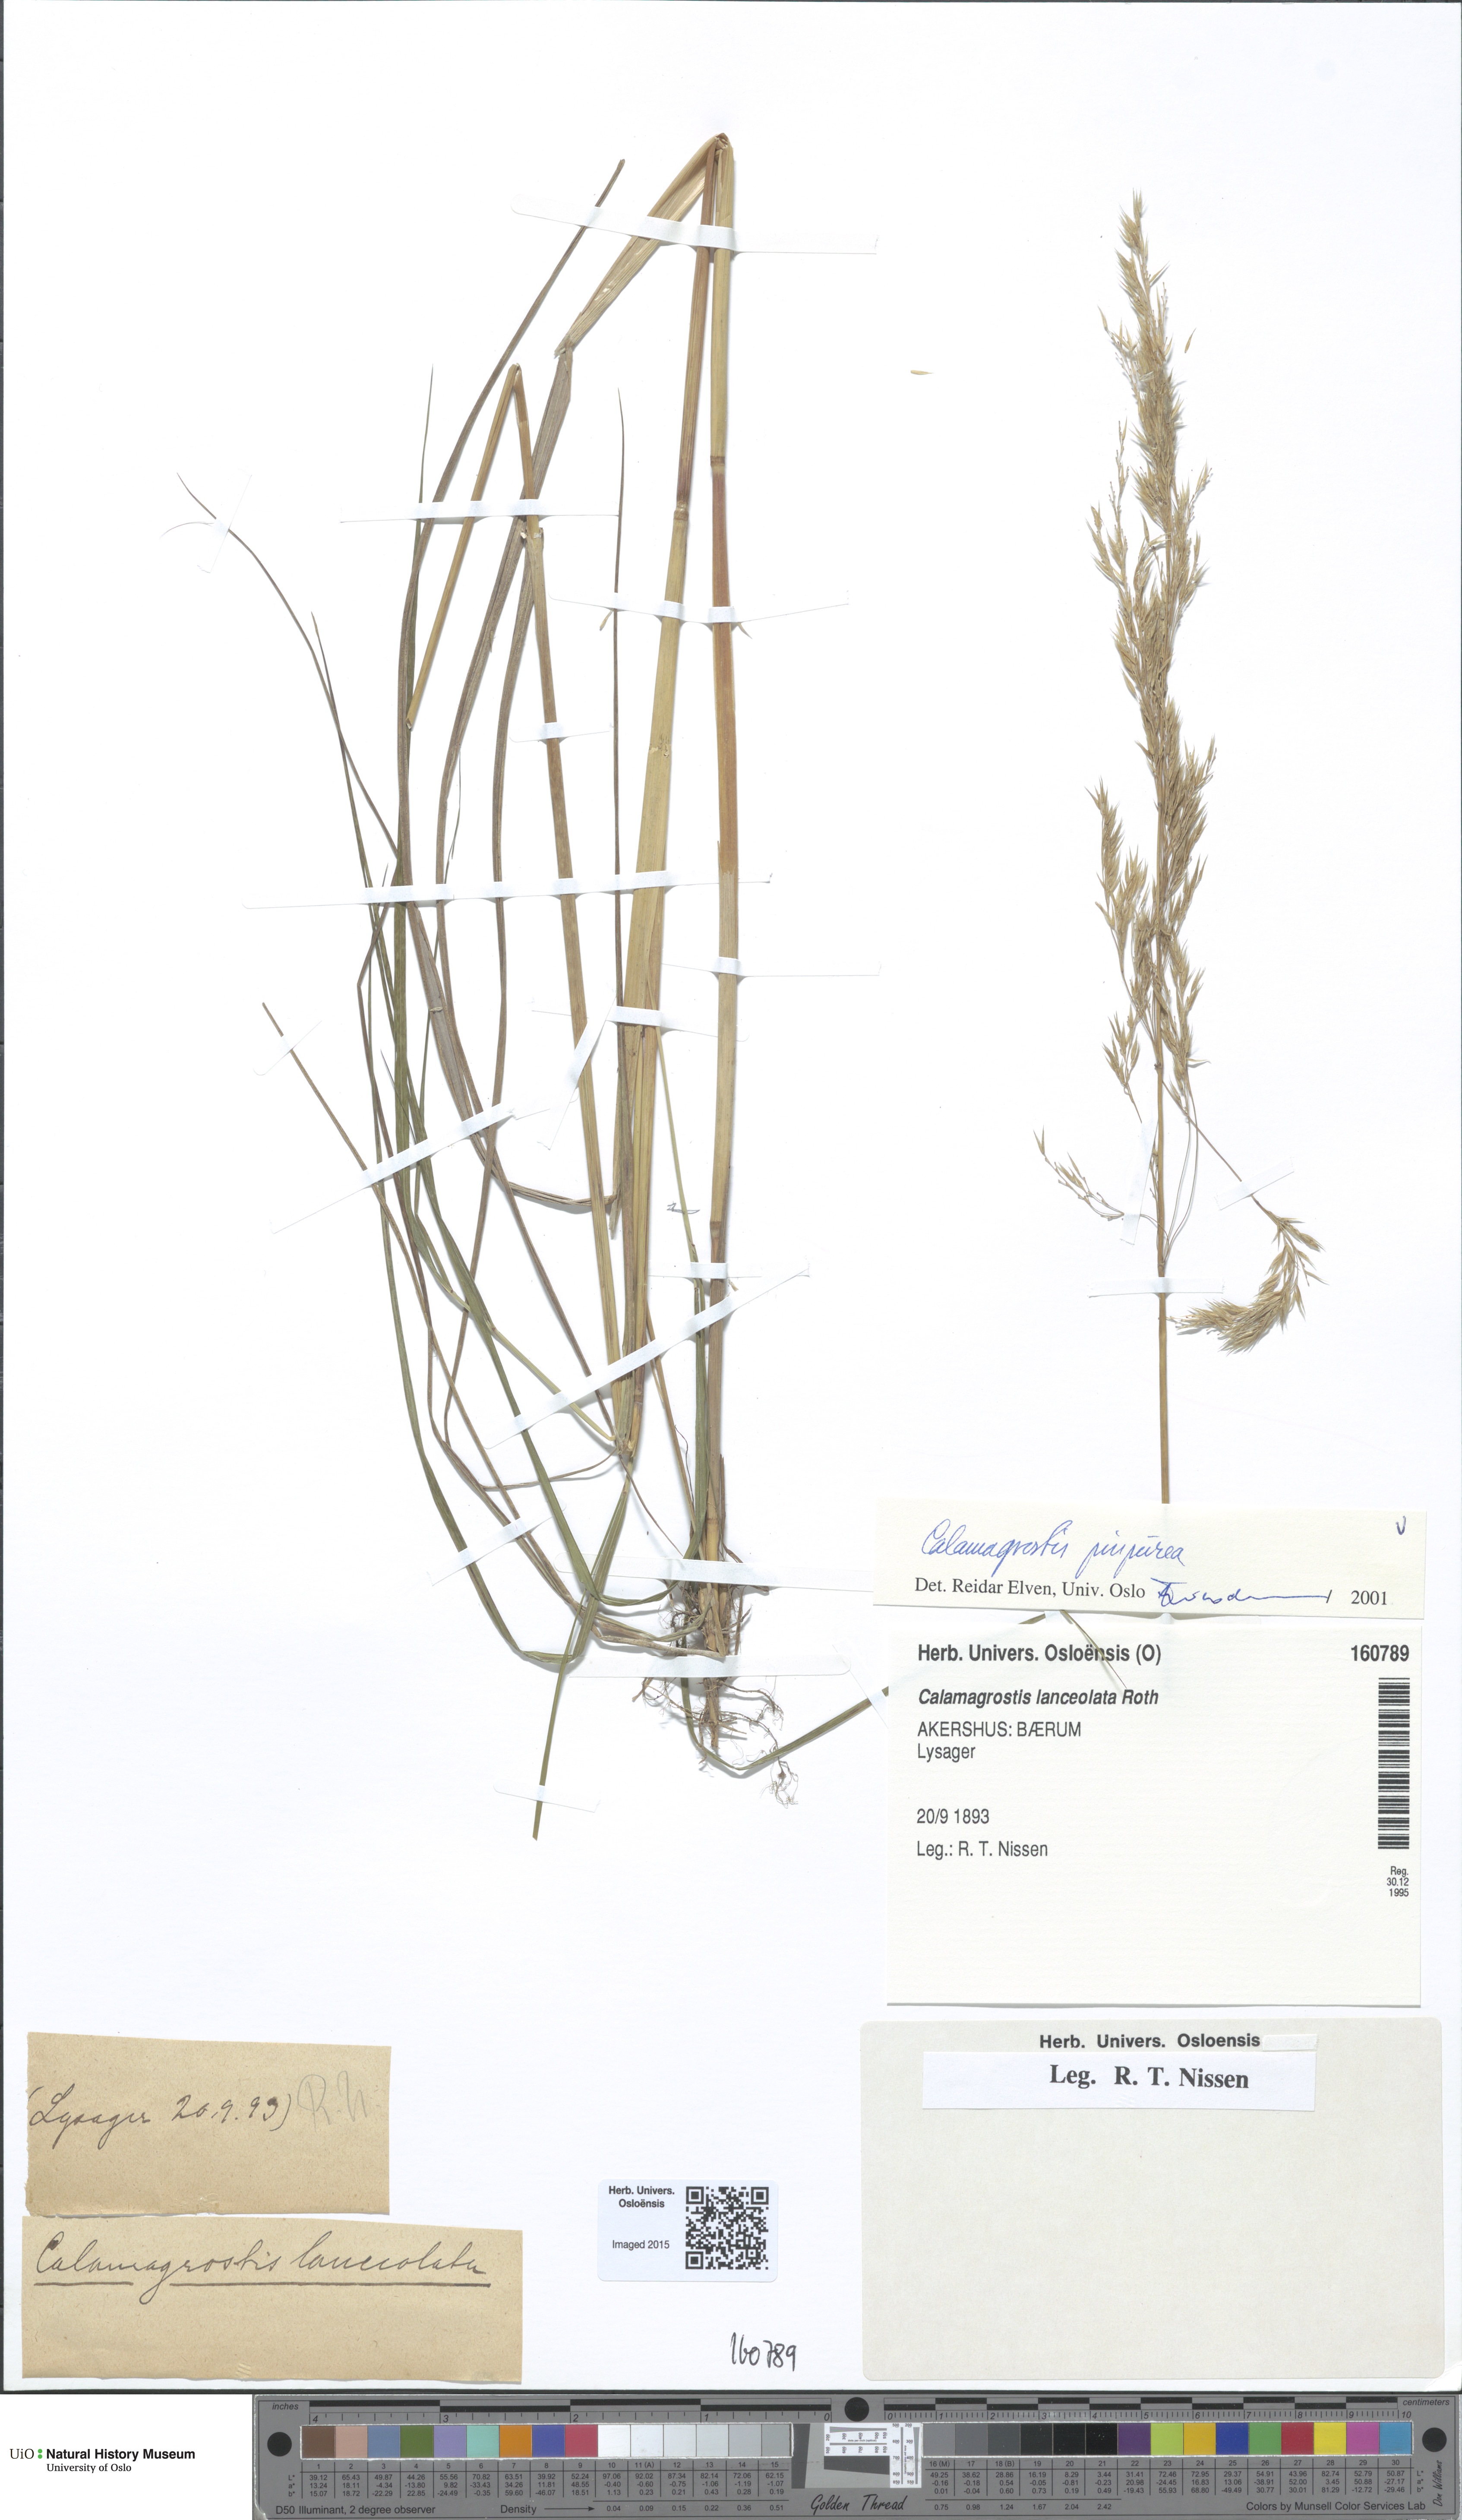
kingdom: Plantae
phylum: Tracheophyta
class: Liliopsida
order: Poales
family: Poaceae
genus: Calamagrostis
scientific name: Calamagrostis purpurea
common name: Scandinavian small-reed
